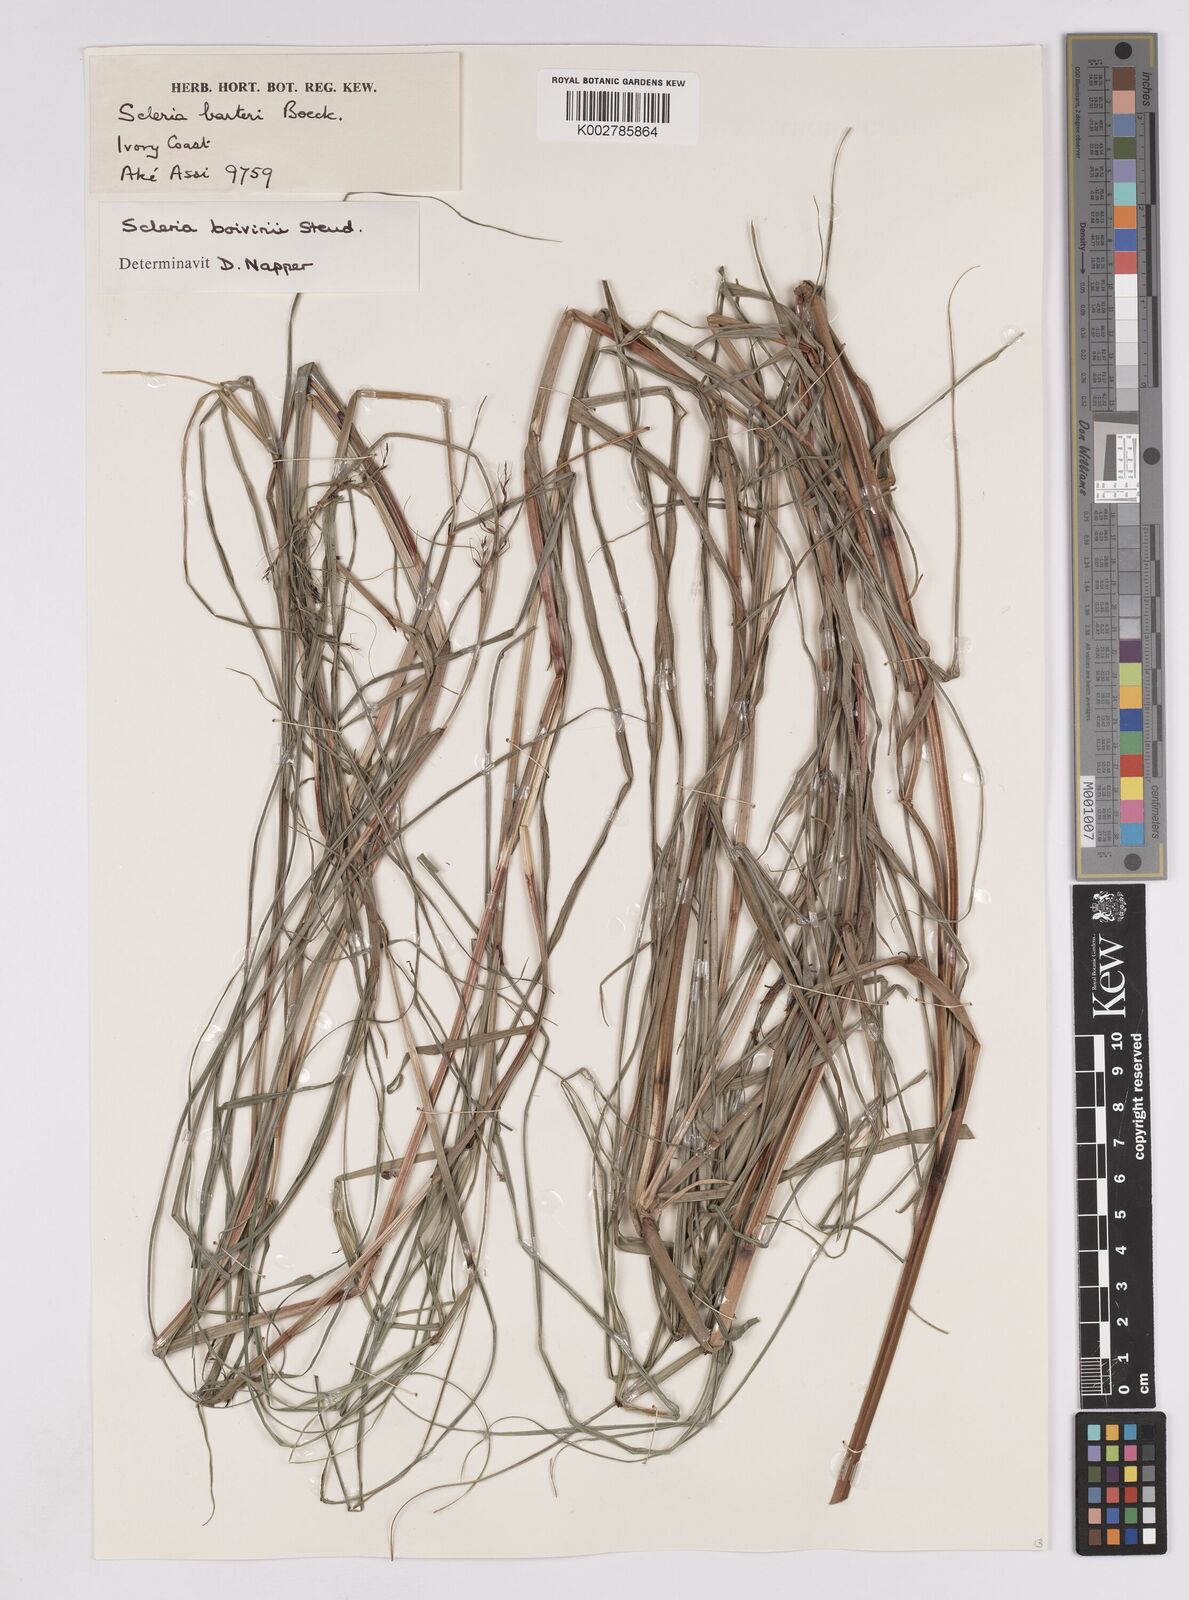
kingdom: Plantae
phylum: Tracheophyta
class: Liliopsida
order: Poales
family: Cyperaceae
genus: Scleria
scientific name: Scleria boivinii
